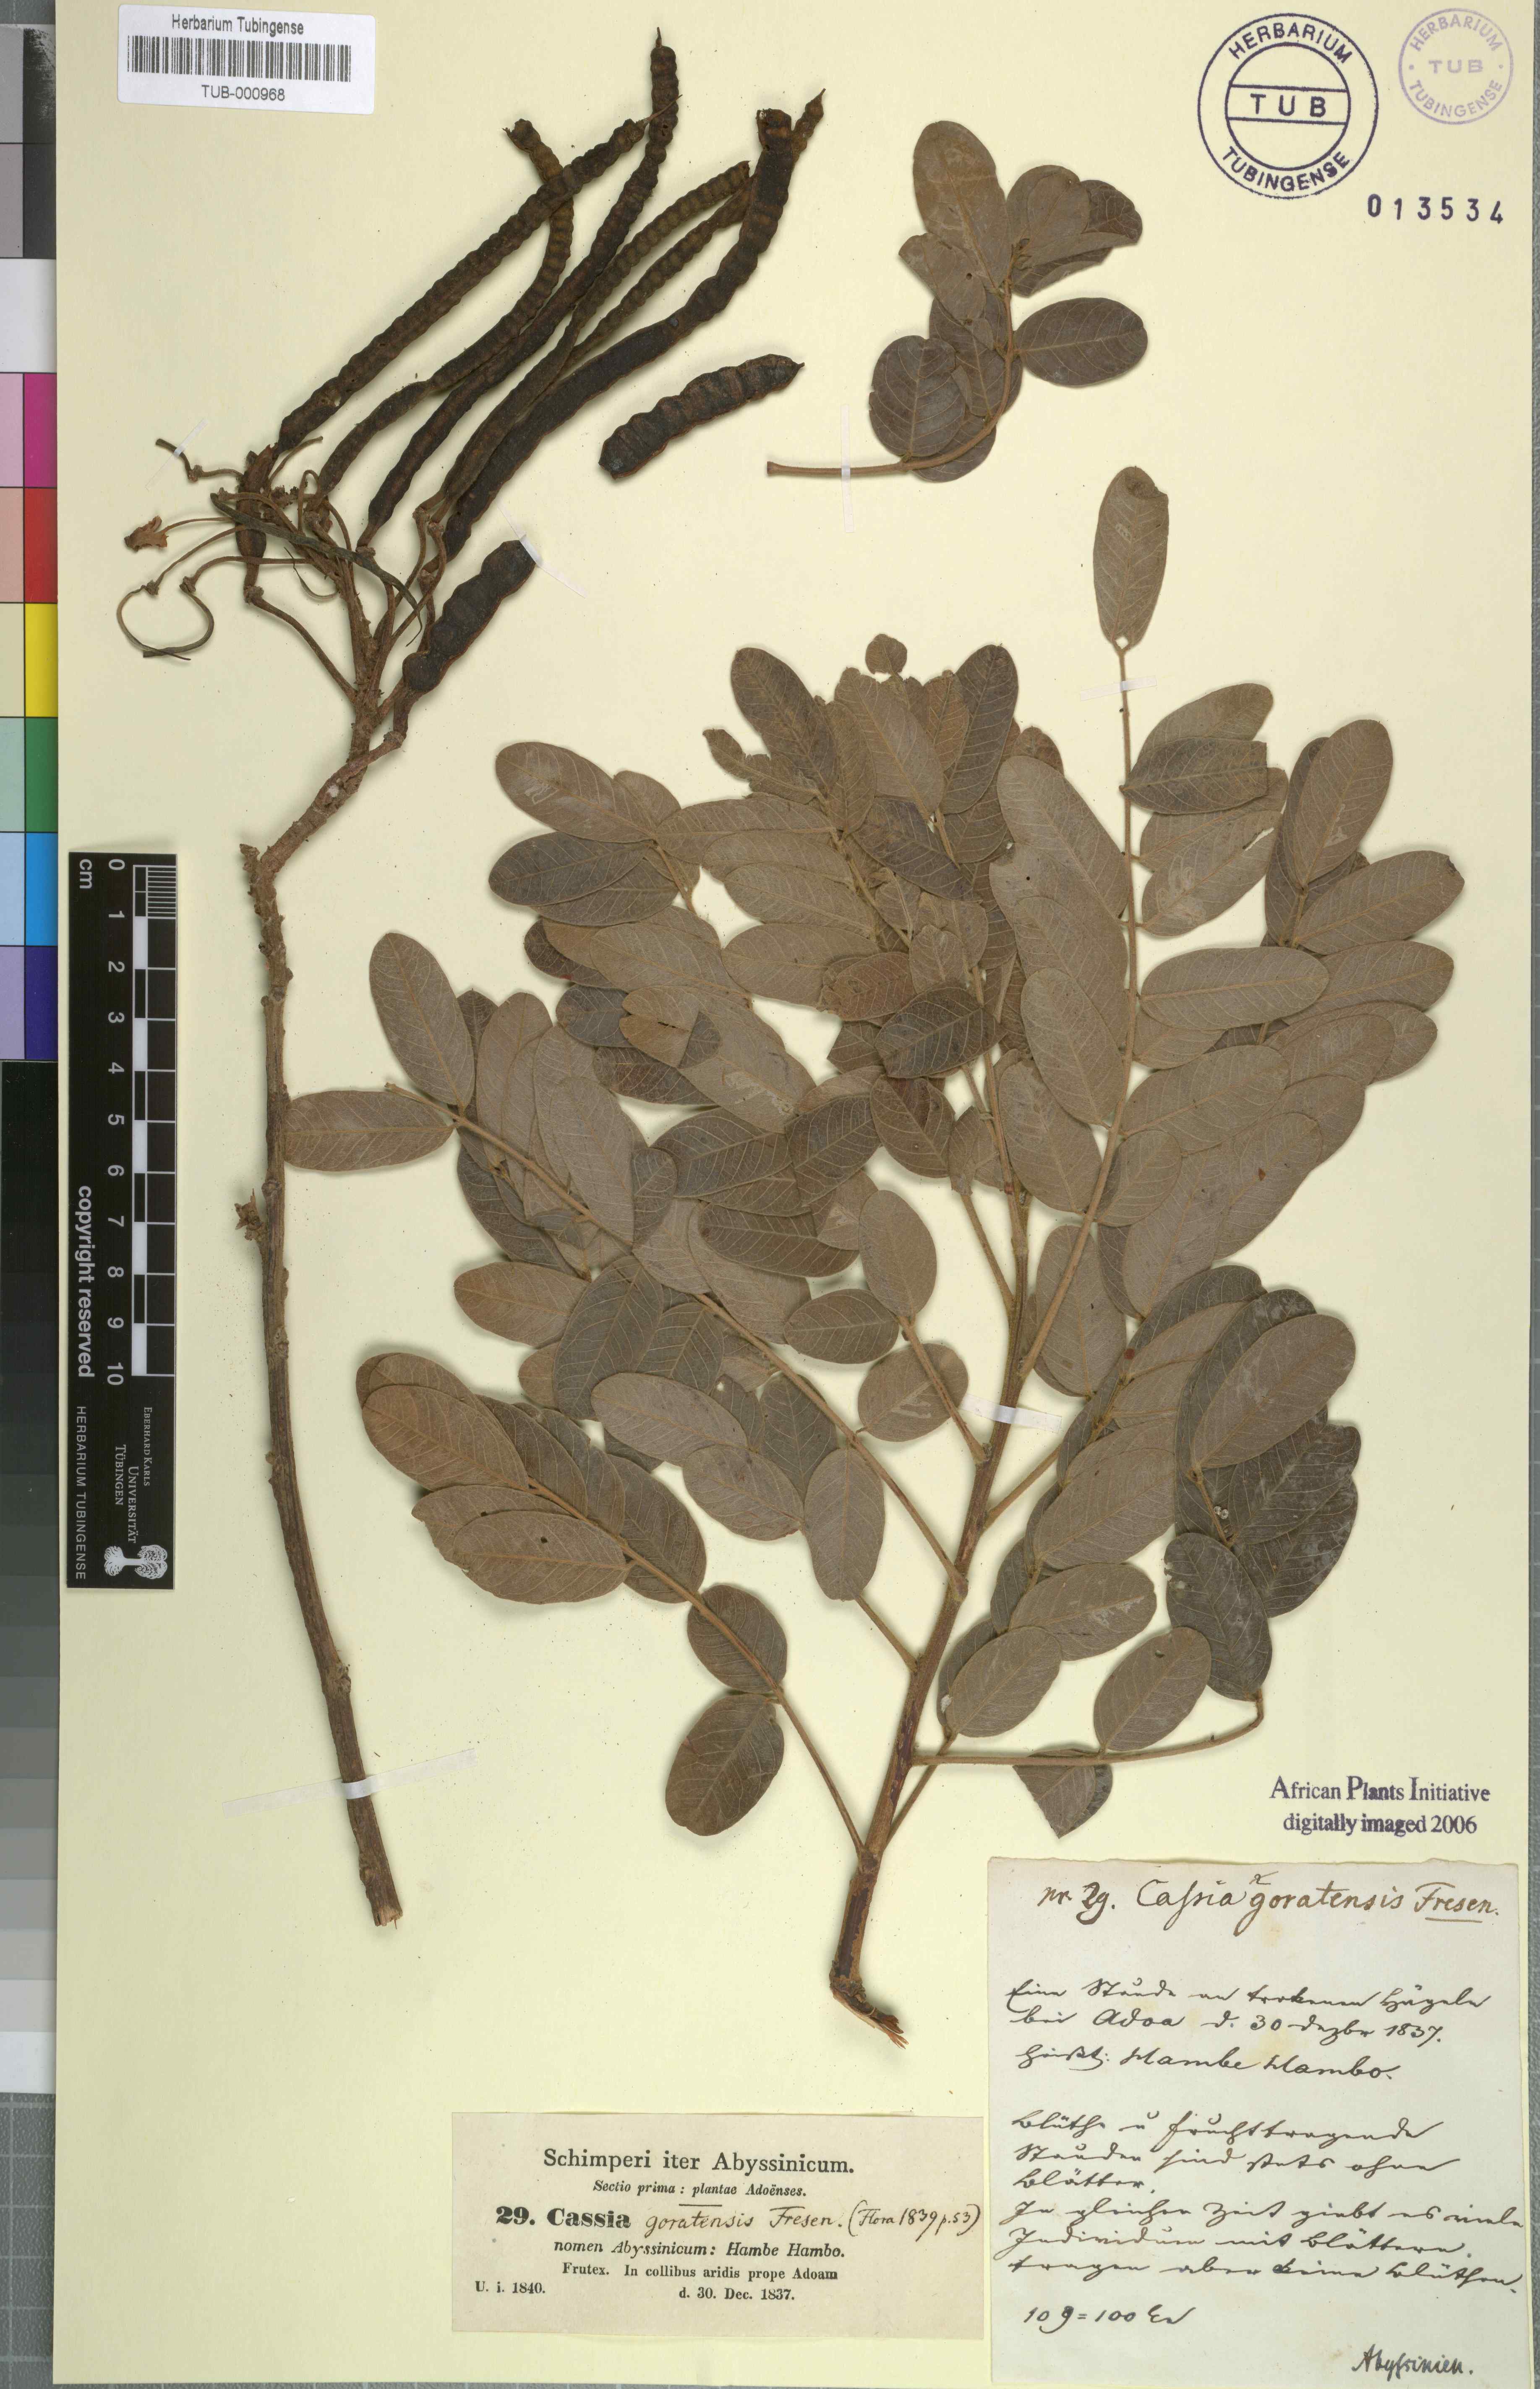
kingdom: Plantae
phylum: Tracheophyta
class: Magnoliopsida
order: Fabales
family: Fabaceae
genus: Senna
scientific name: Senna singueana
